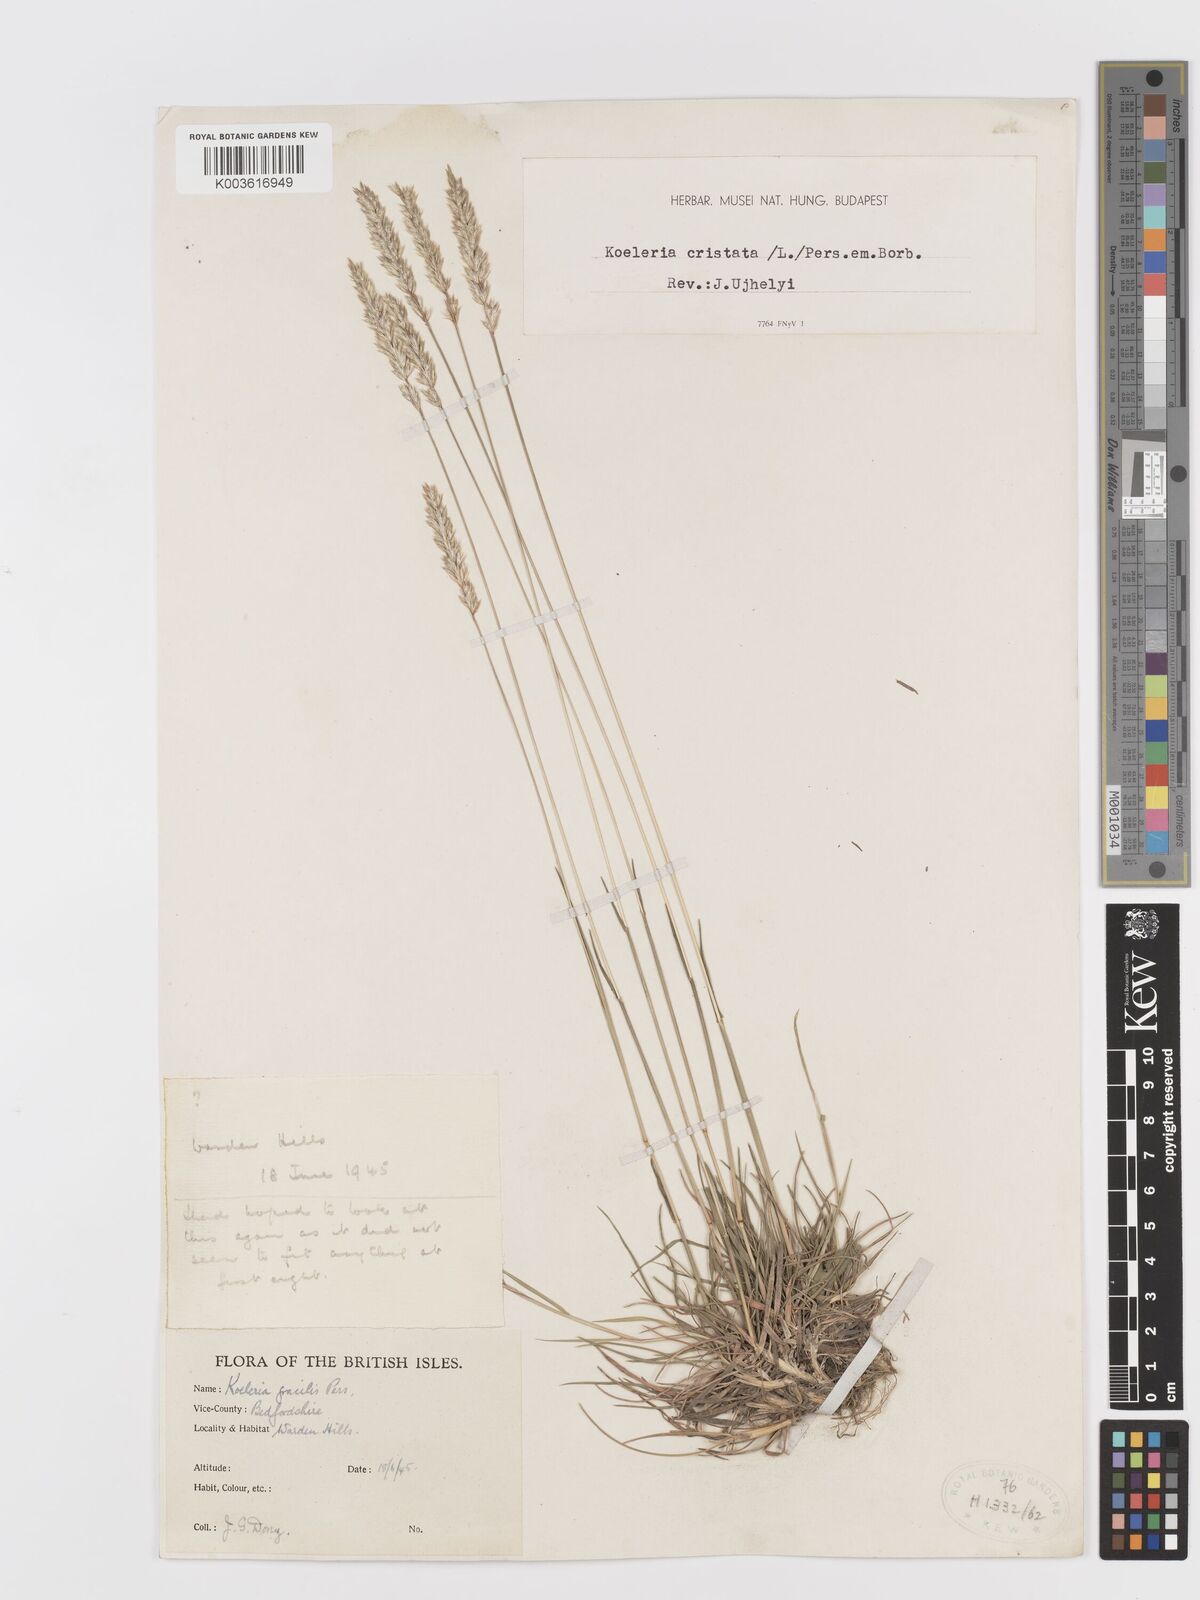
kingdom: Plantae
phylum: Tracheophyta
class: Liliopsida
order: Poales
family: Poaceae
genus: Koeleria
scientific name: Koeleria macrantha
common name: Crested hair-grass
